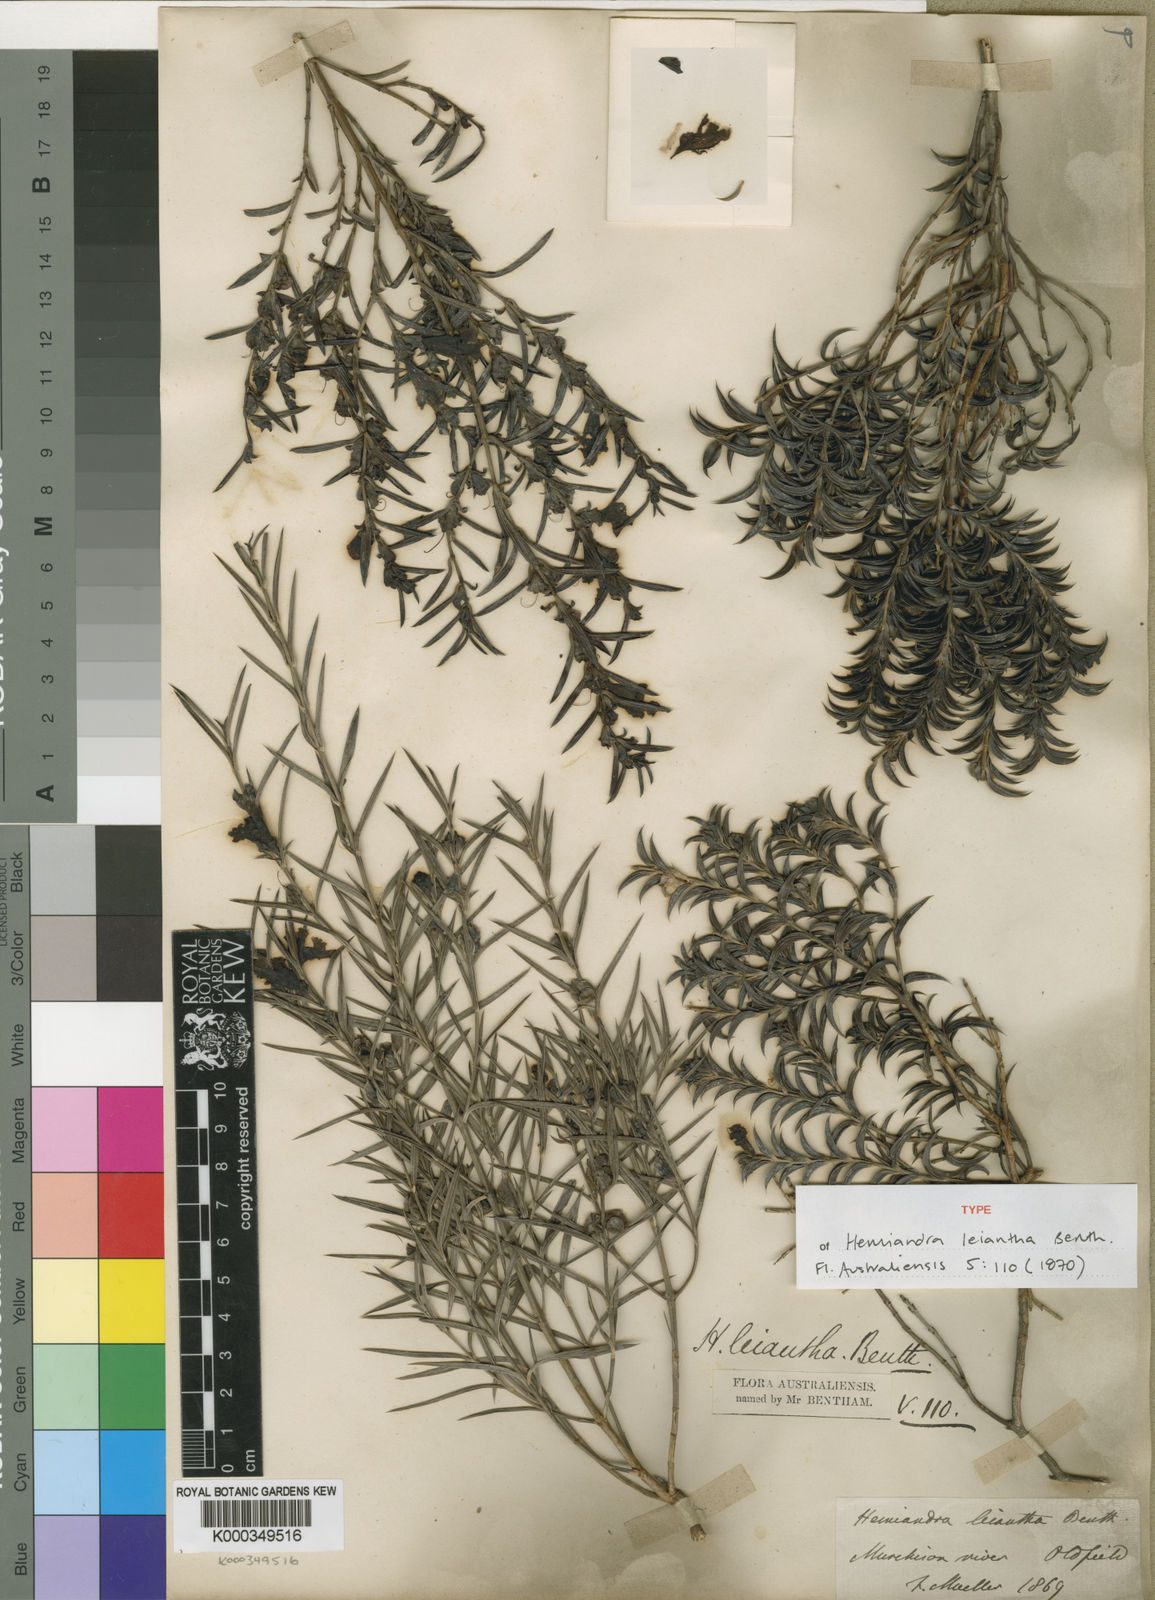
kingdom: Plantae
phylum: Tracheophyta
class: Magnoliopsida
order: Lamiales
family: Lamiaceae
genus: Hemiandra
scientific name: Hemiandra leiantha
